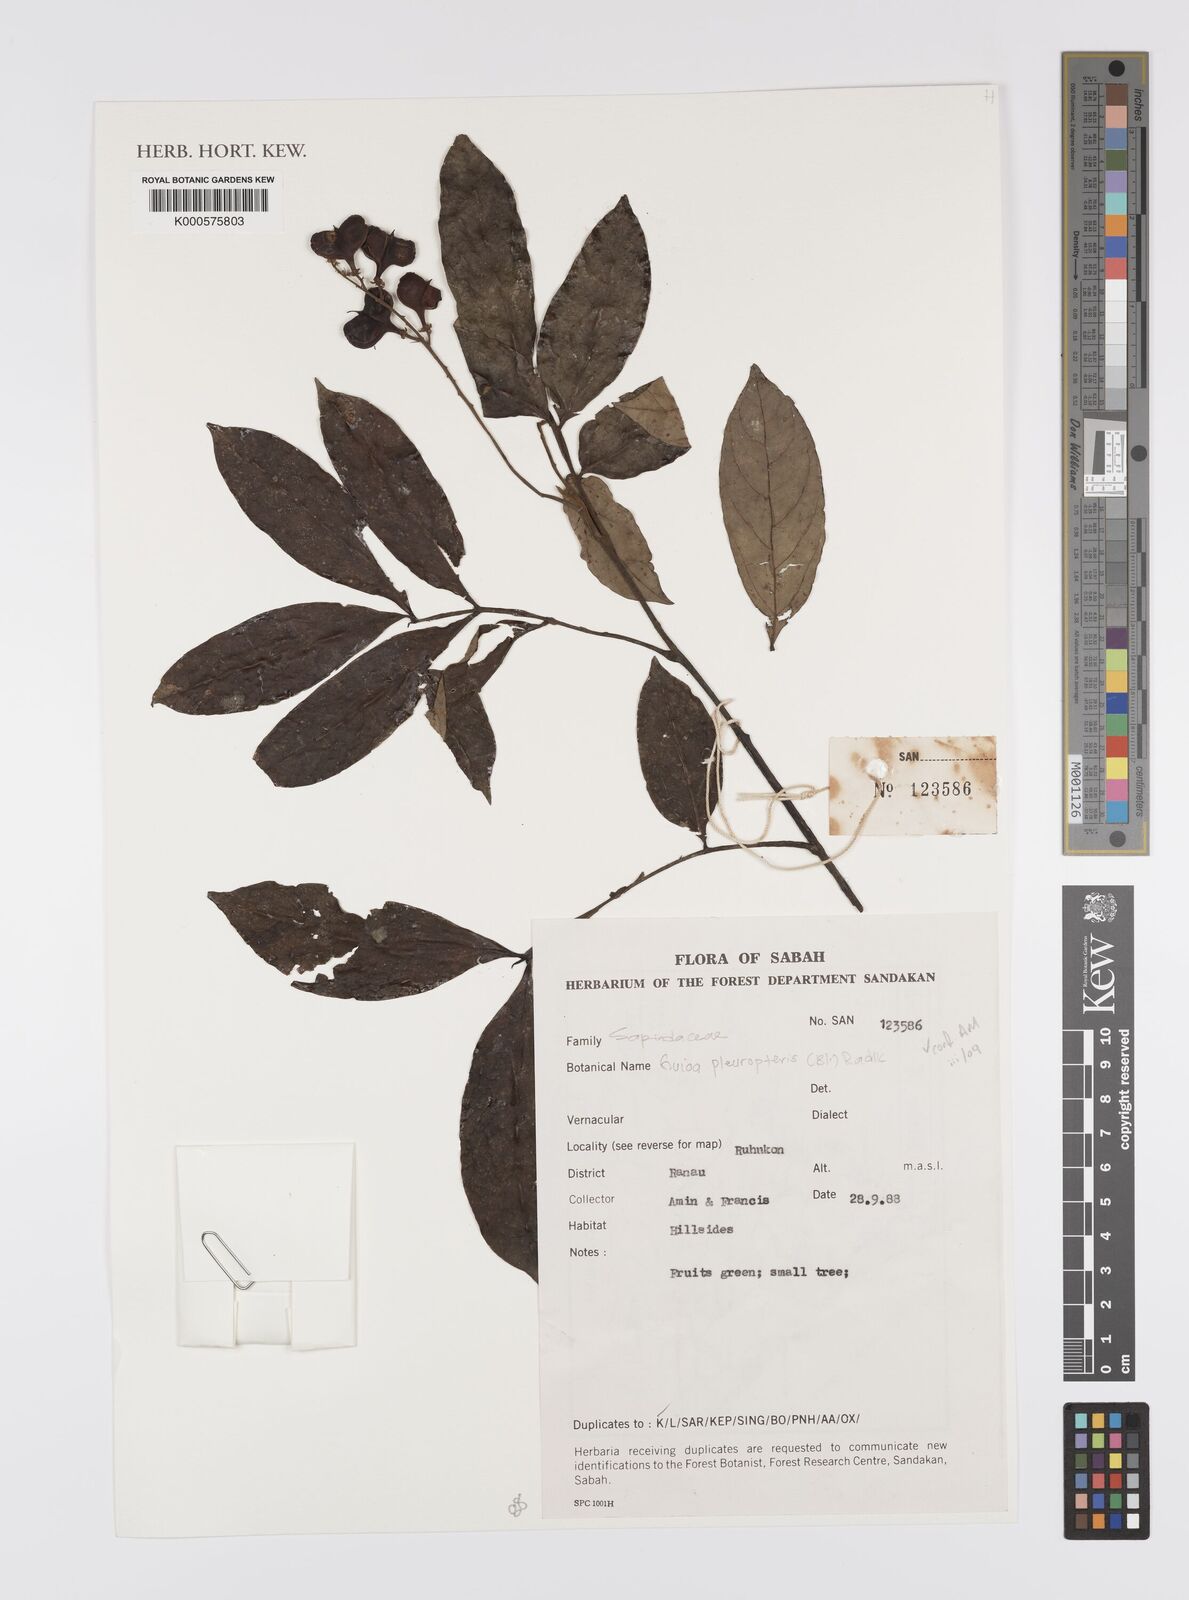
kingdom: Plantae
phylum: Tracheophyta
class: Magnoliopsida
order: Sapindales
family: Sapindaceae
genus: Guioa
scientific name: Guioa pleuropteris
